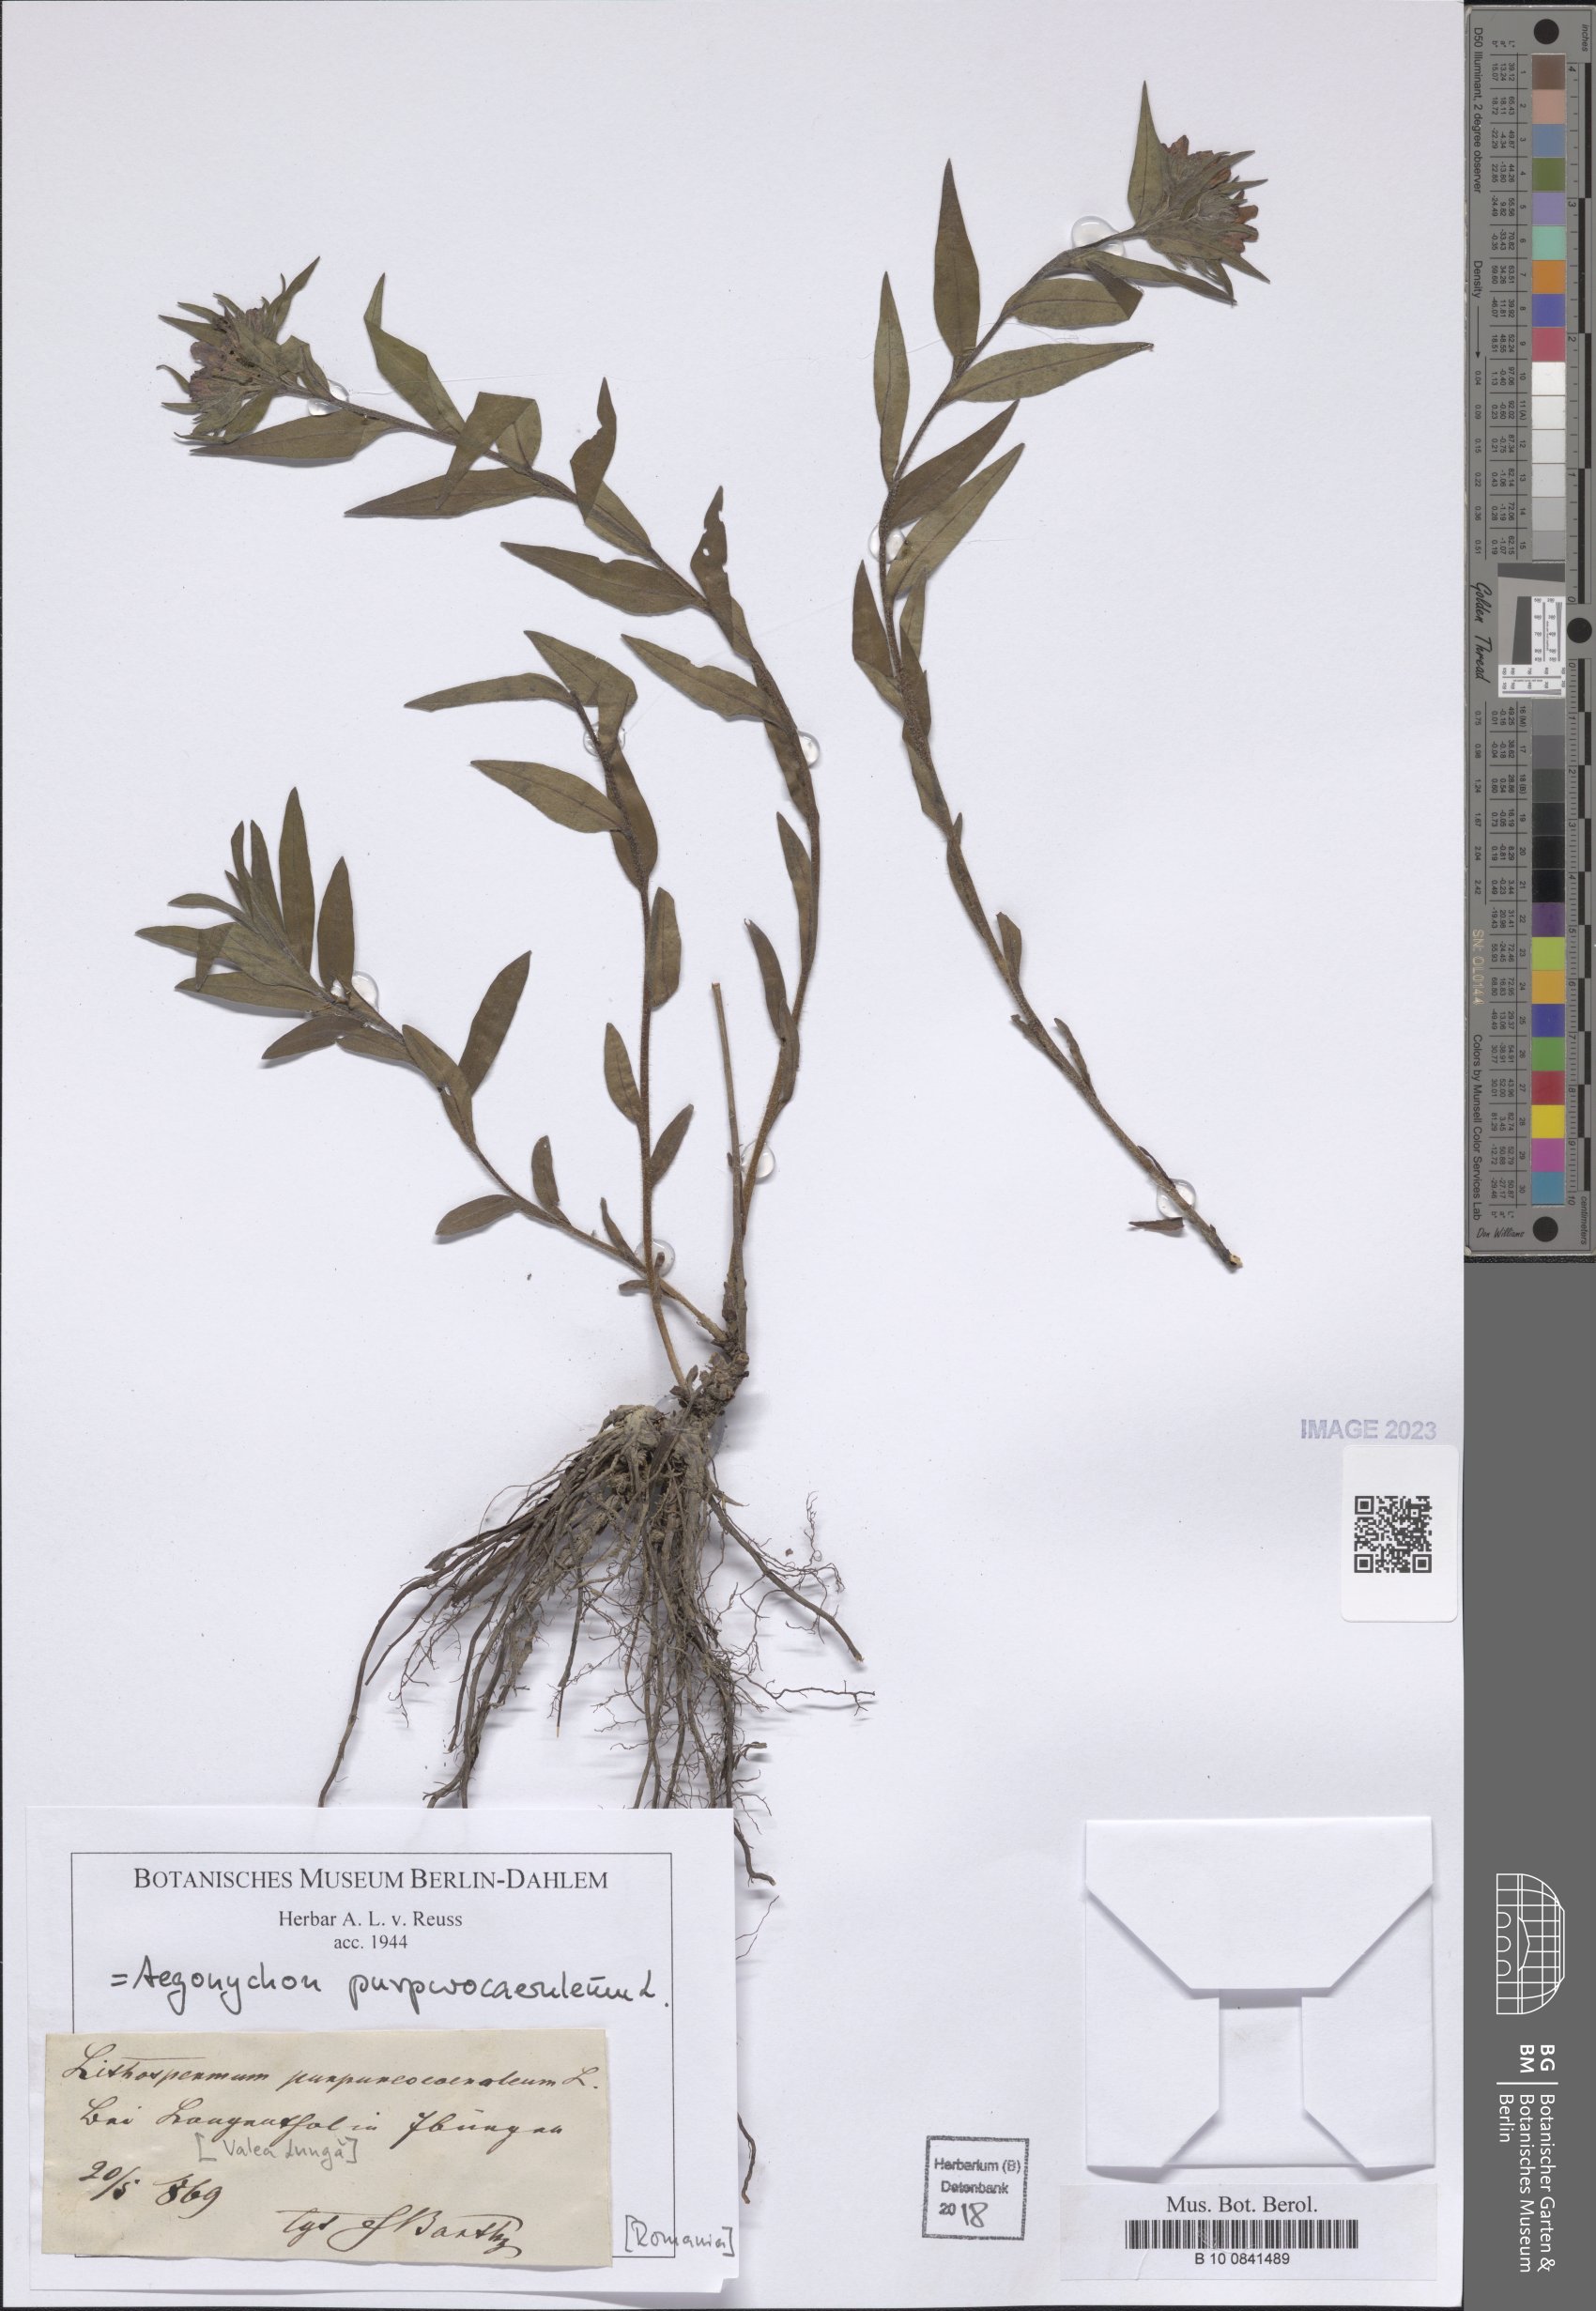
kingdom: Plantae
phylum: Tracheophyta
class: Magnoliopsida
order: Boraginales
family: Boraginaceae
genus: Aegonychon
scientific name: Aegonychon purpurocaeruleum
